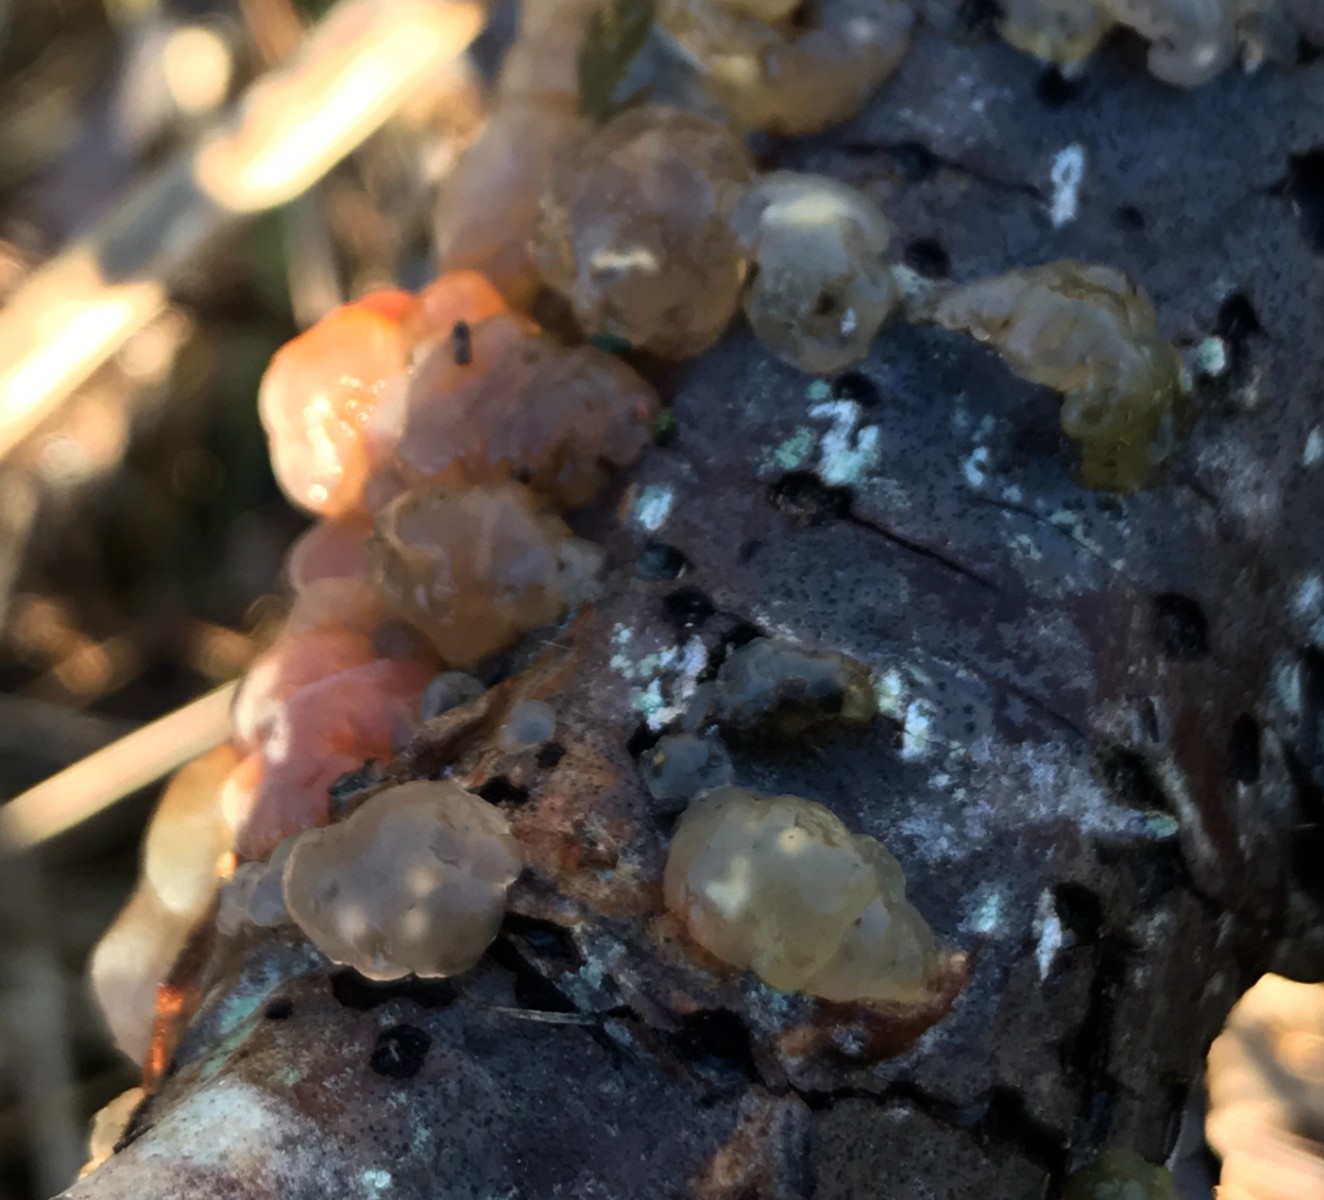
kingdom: Fungi
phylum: Basidiomycota
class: Agaricomycetes
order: Auriculariales
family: Hyaloriaceae
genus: Myxarium
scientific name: Myxarium hyalinum
